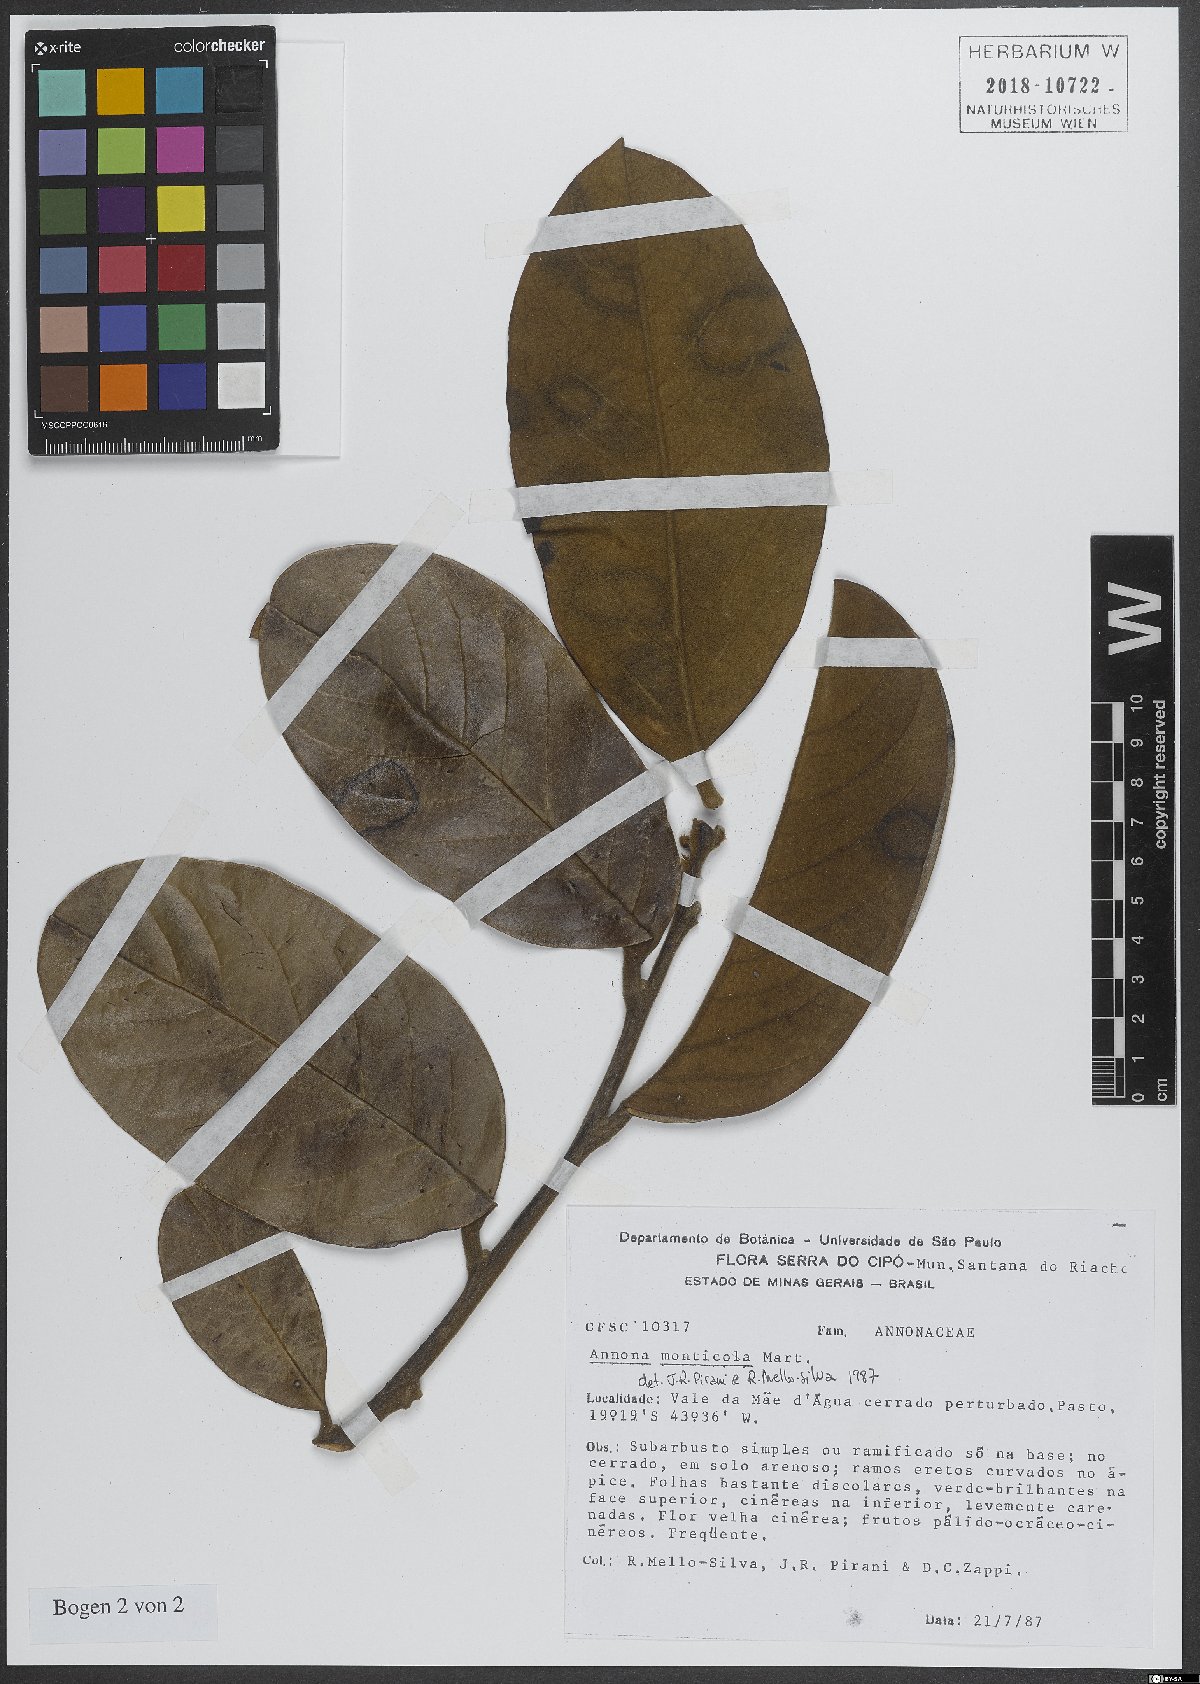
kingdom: Plantae
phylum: Tracheophyta
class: Magnoliopsida
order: Magnoliales
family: Annonaceae
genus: Annona
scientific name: Annona monticola
